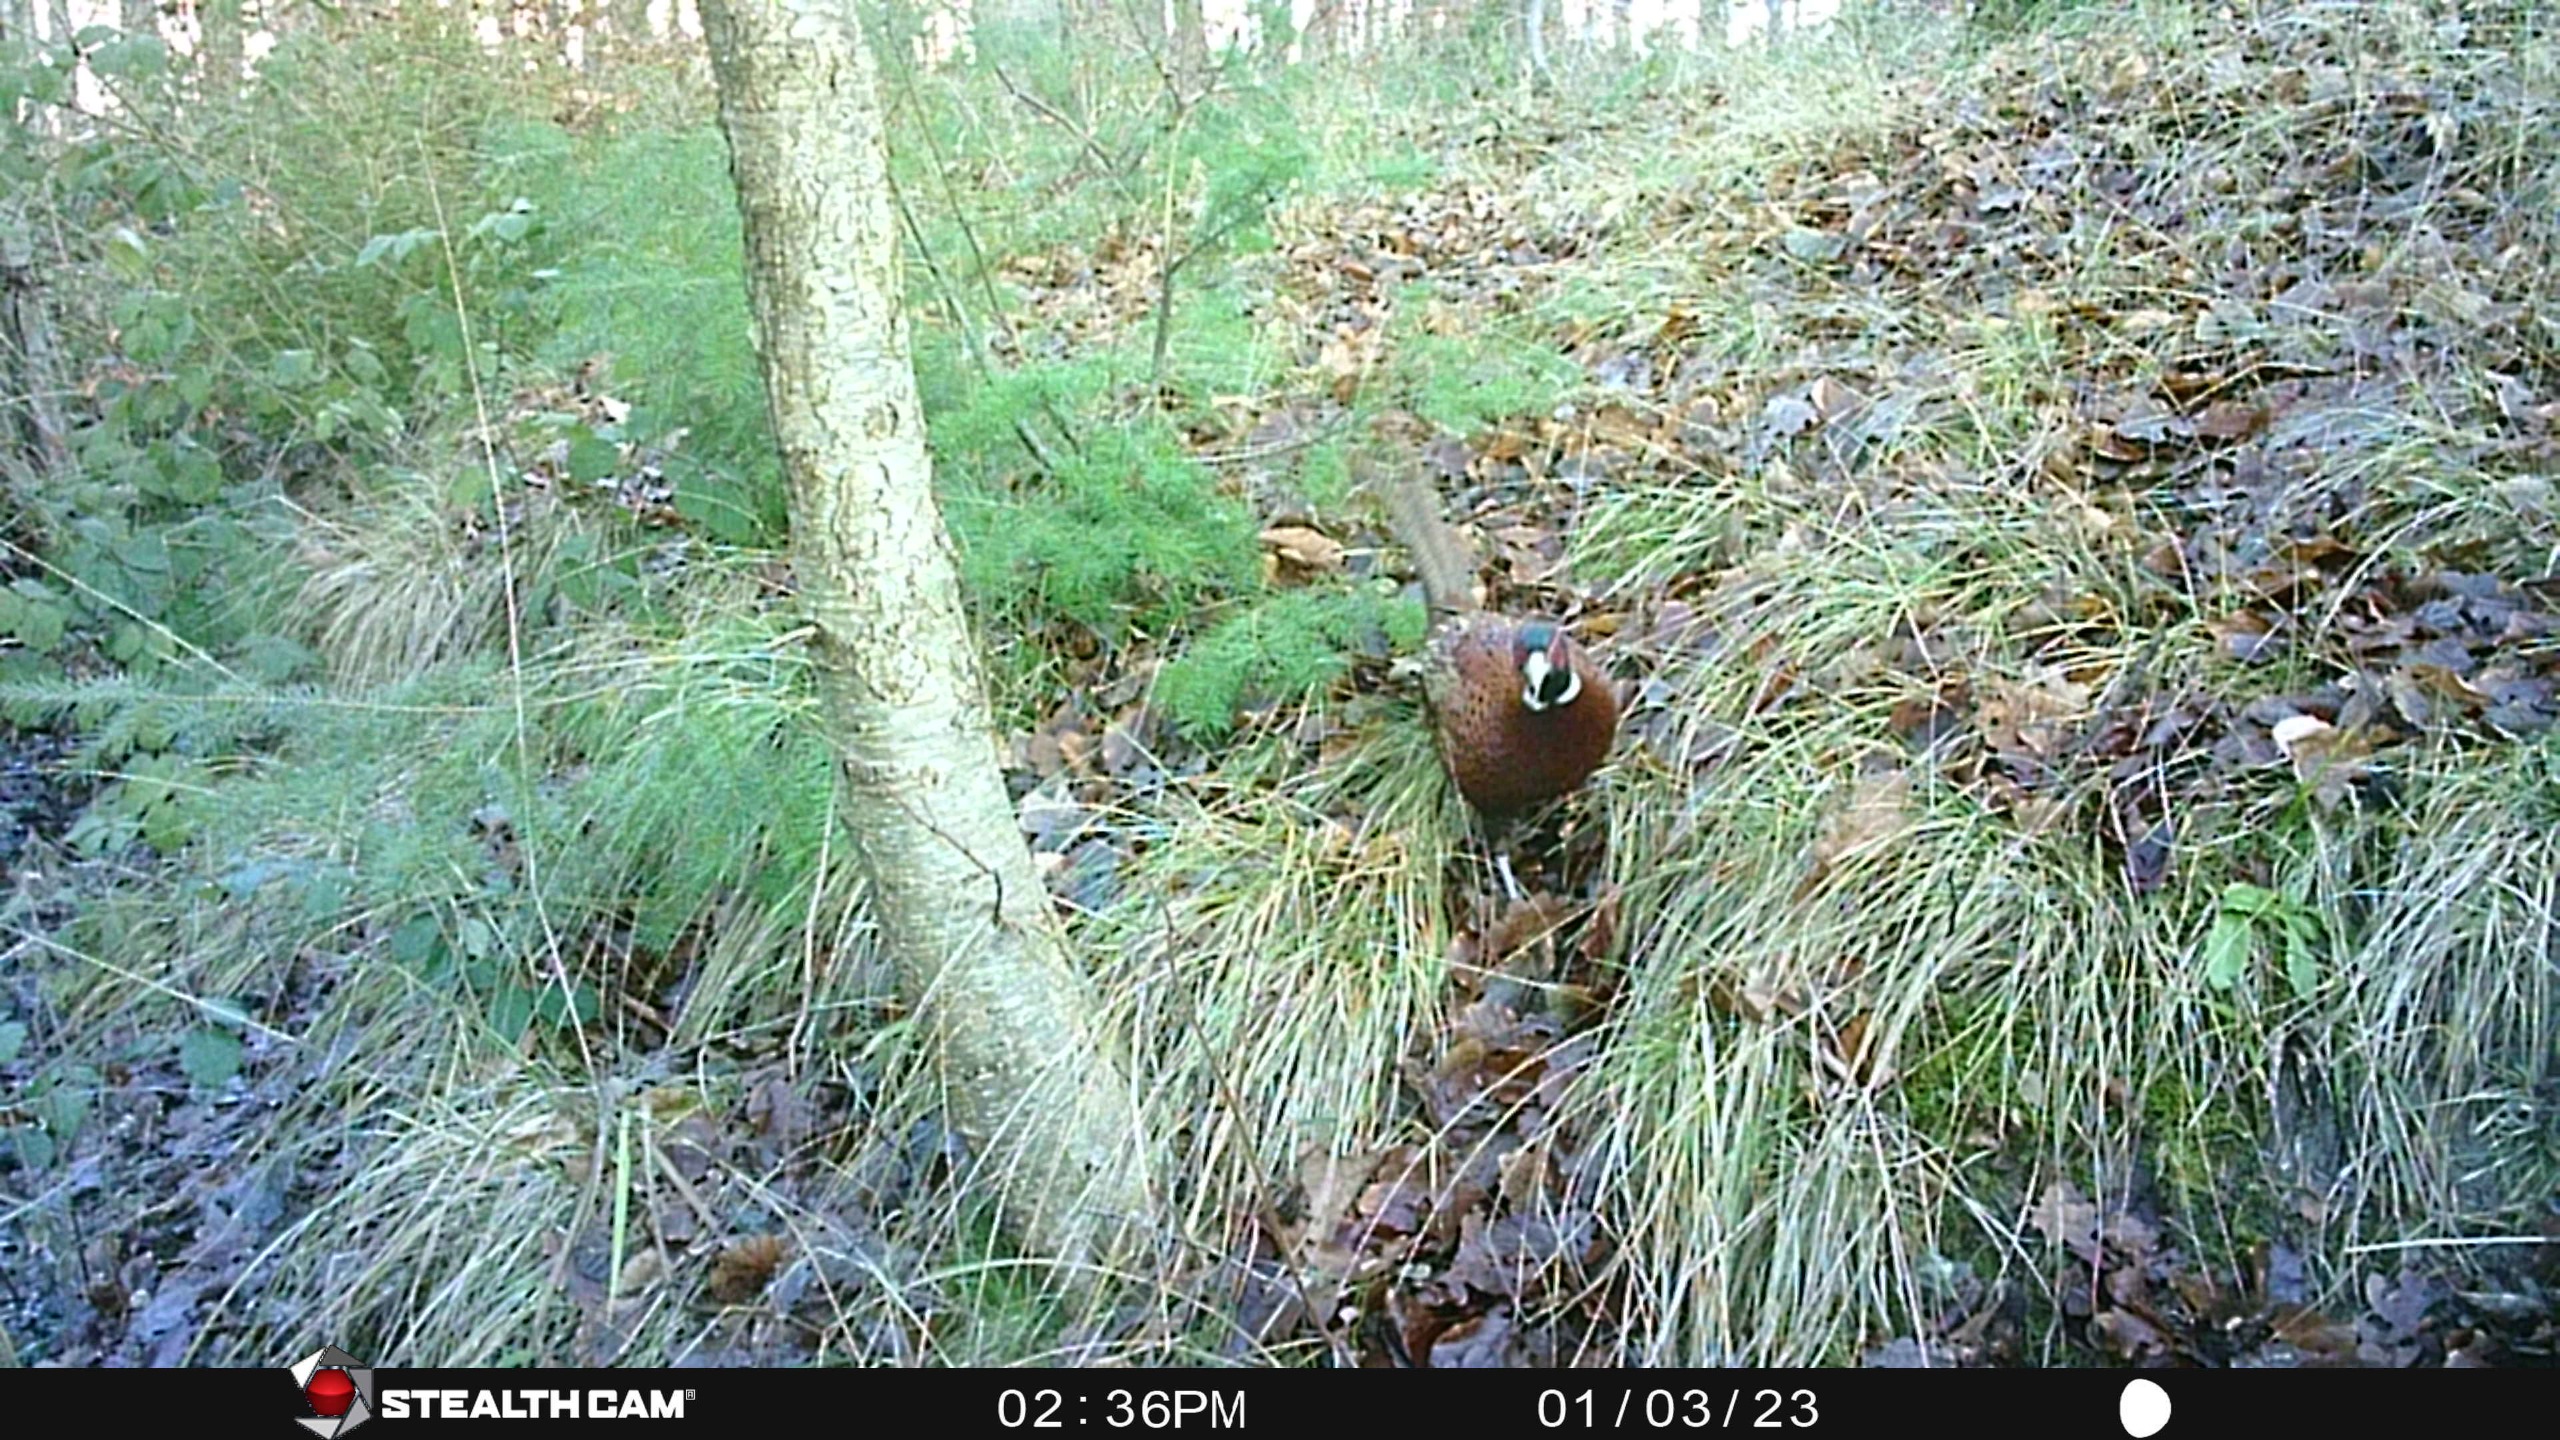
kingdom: Animalia
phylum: Chordata
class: Aves
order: Galliformes
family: Phasianidae
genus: Phasianus
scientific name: Phasianus colchicus
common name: Fasan
